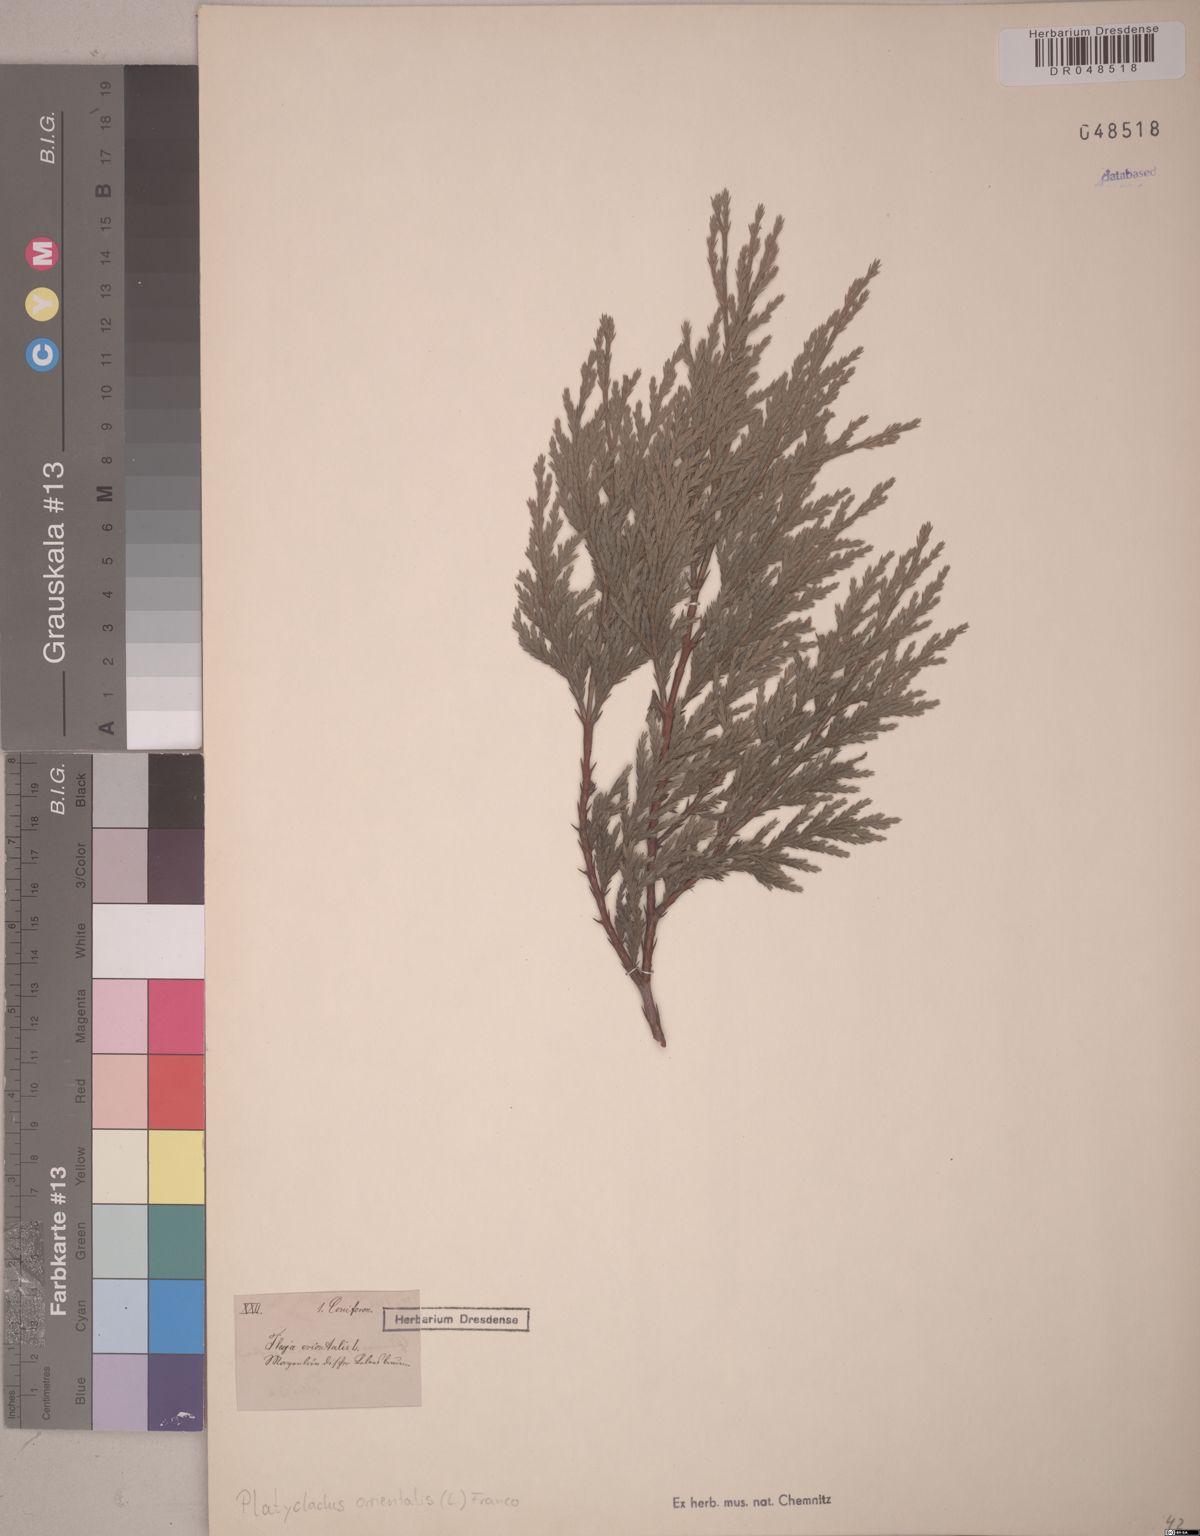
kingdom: Plantae
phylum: Tracheophyta
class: Pinopsida
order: Pinales
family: Cupressaceae
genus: Platycladus
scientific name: Platycladus orientalis
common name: Chinese thuja
